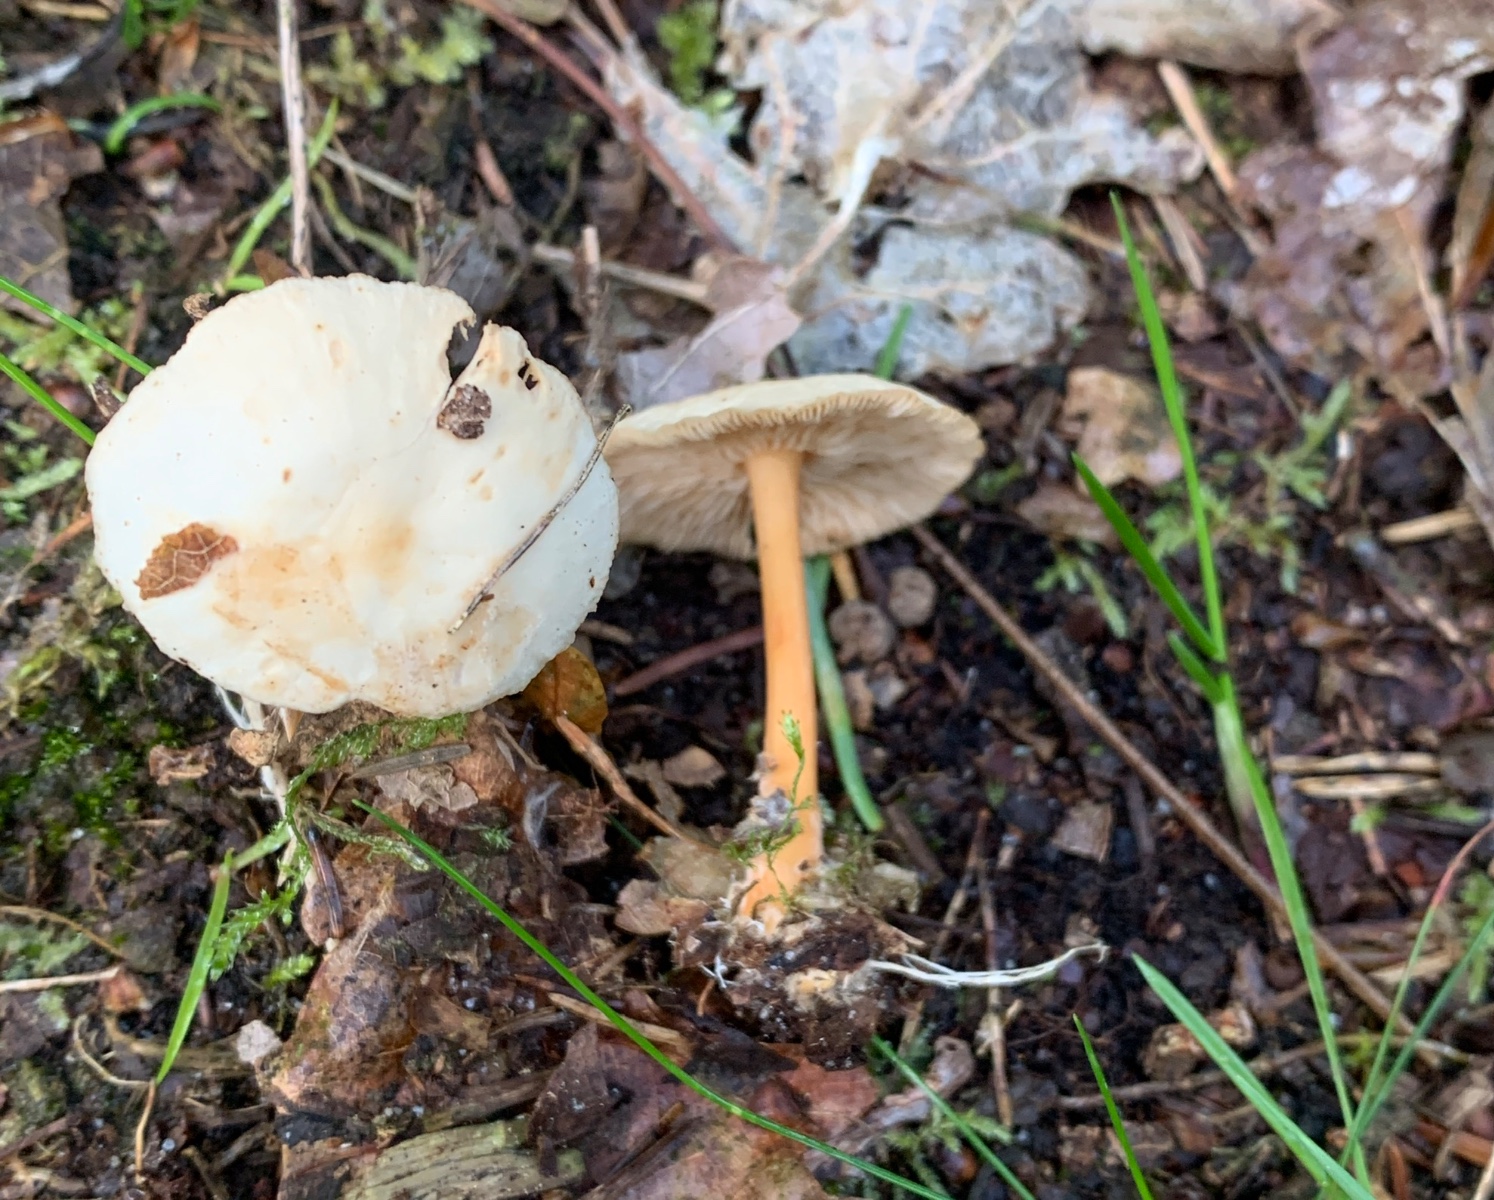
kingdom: Fungi
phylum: Basidiomycota
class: Agaricomycetes
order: Agaricales
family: Omphalotaceae
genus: Gymnopus
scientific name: Gymnopus dryophilus
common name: løv-fladhat
